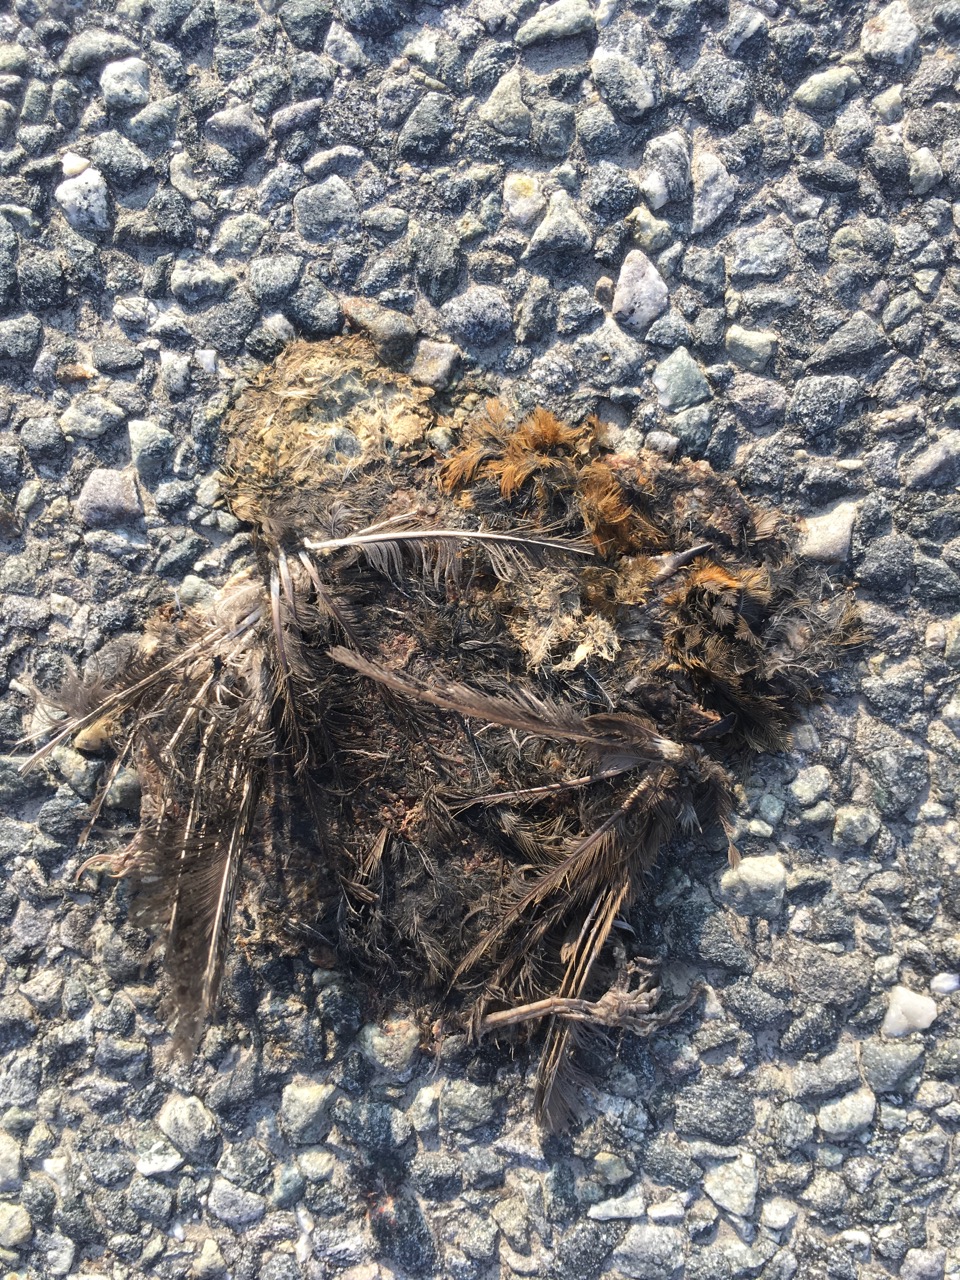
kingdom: Animalia
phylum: Chordata
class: Aves
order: Passeriformes
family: Muscicapidae
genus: Erithacus
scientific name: Erithacus rubecula
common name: European robin
